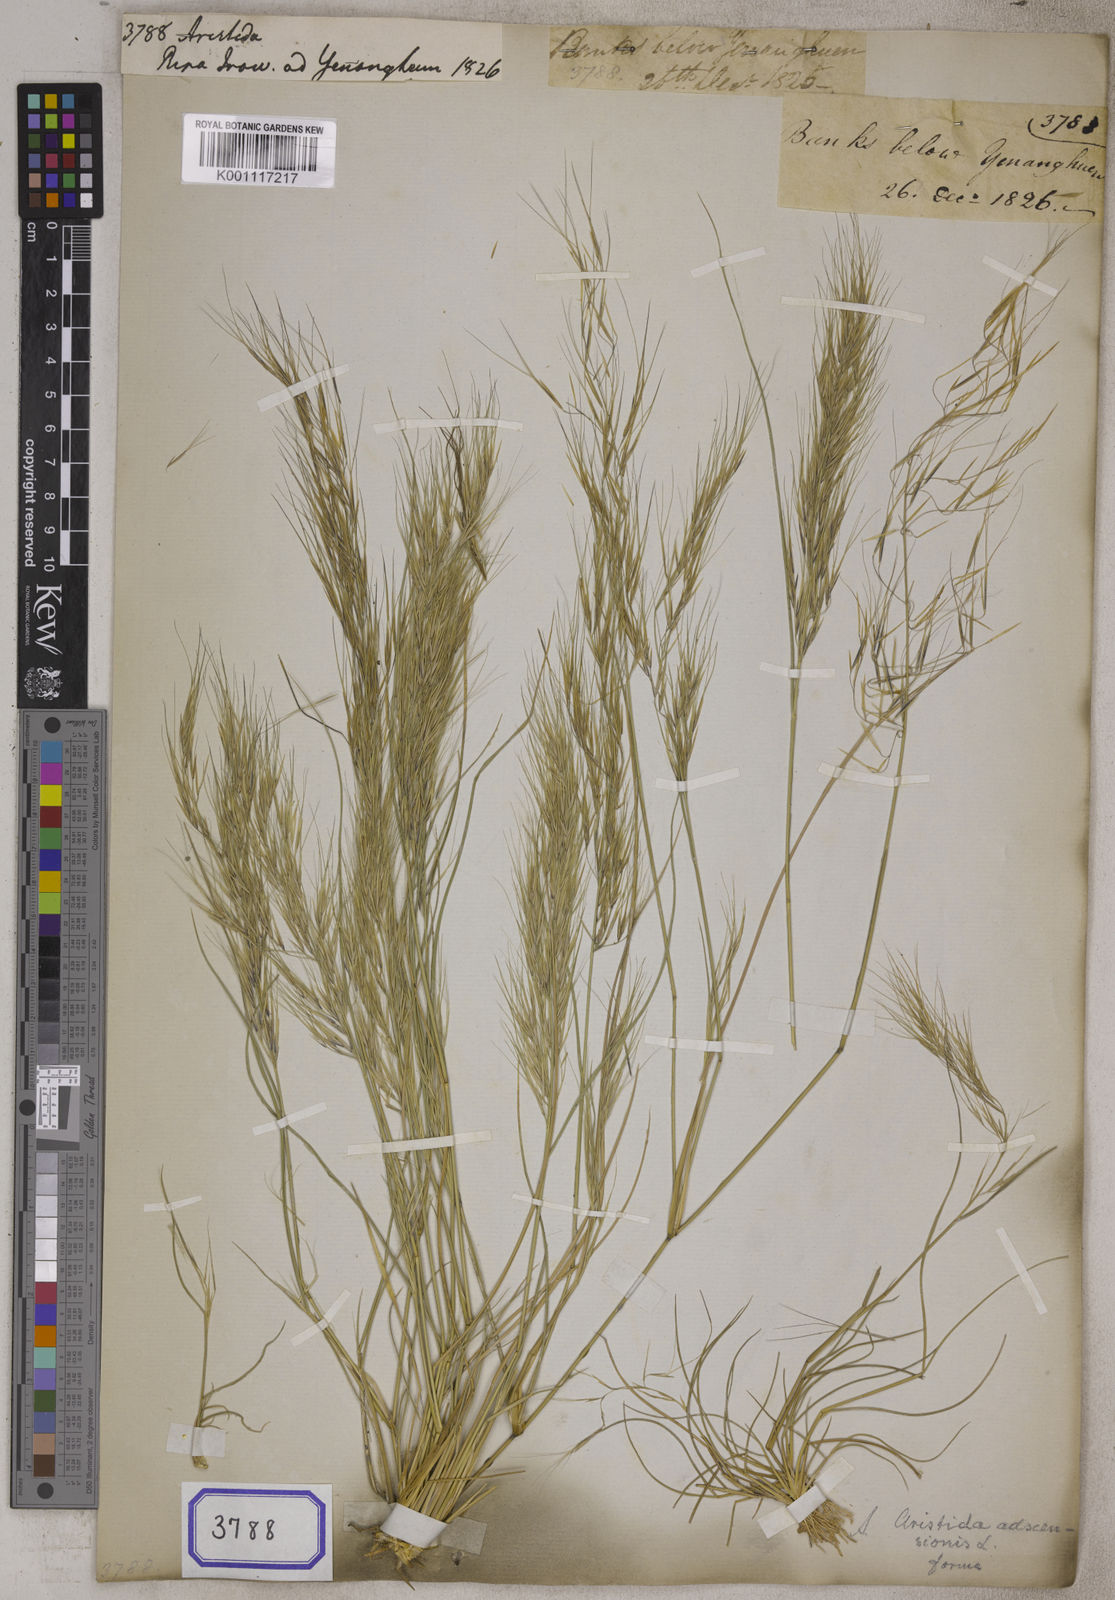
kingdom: Plantae
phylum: Tracheophyta
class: Liliopsida
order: Poales
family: Poaceae
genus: Aristida
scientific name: Aristida
